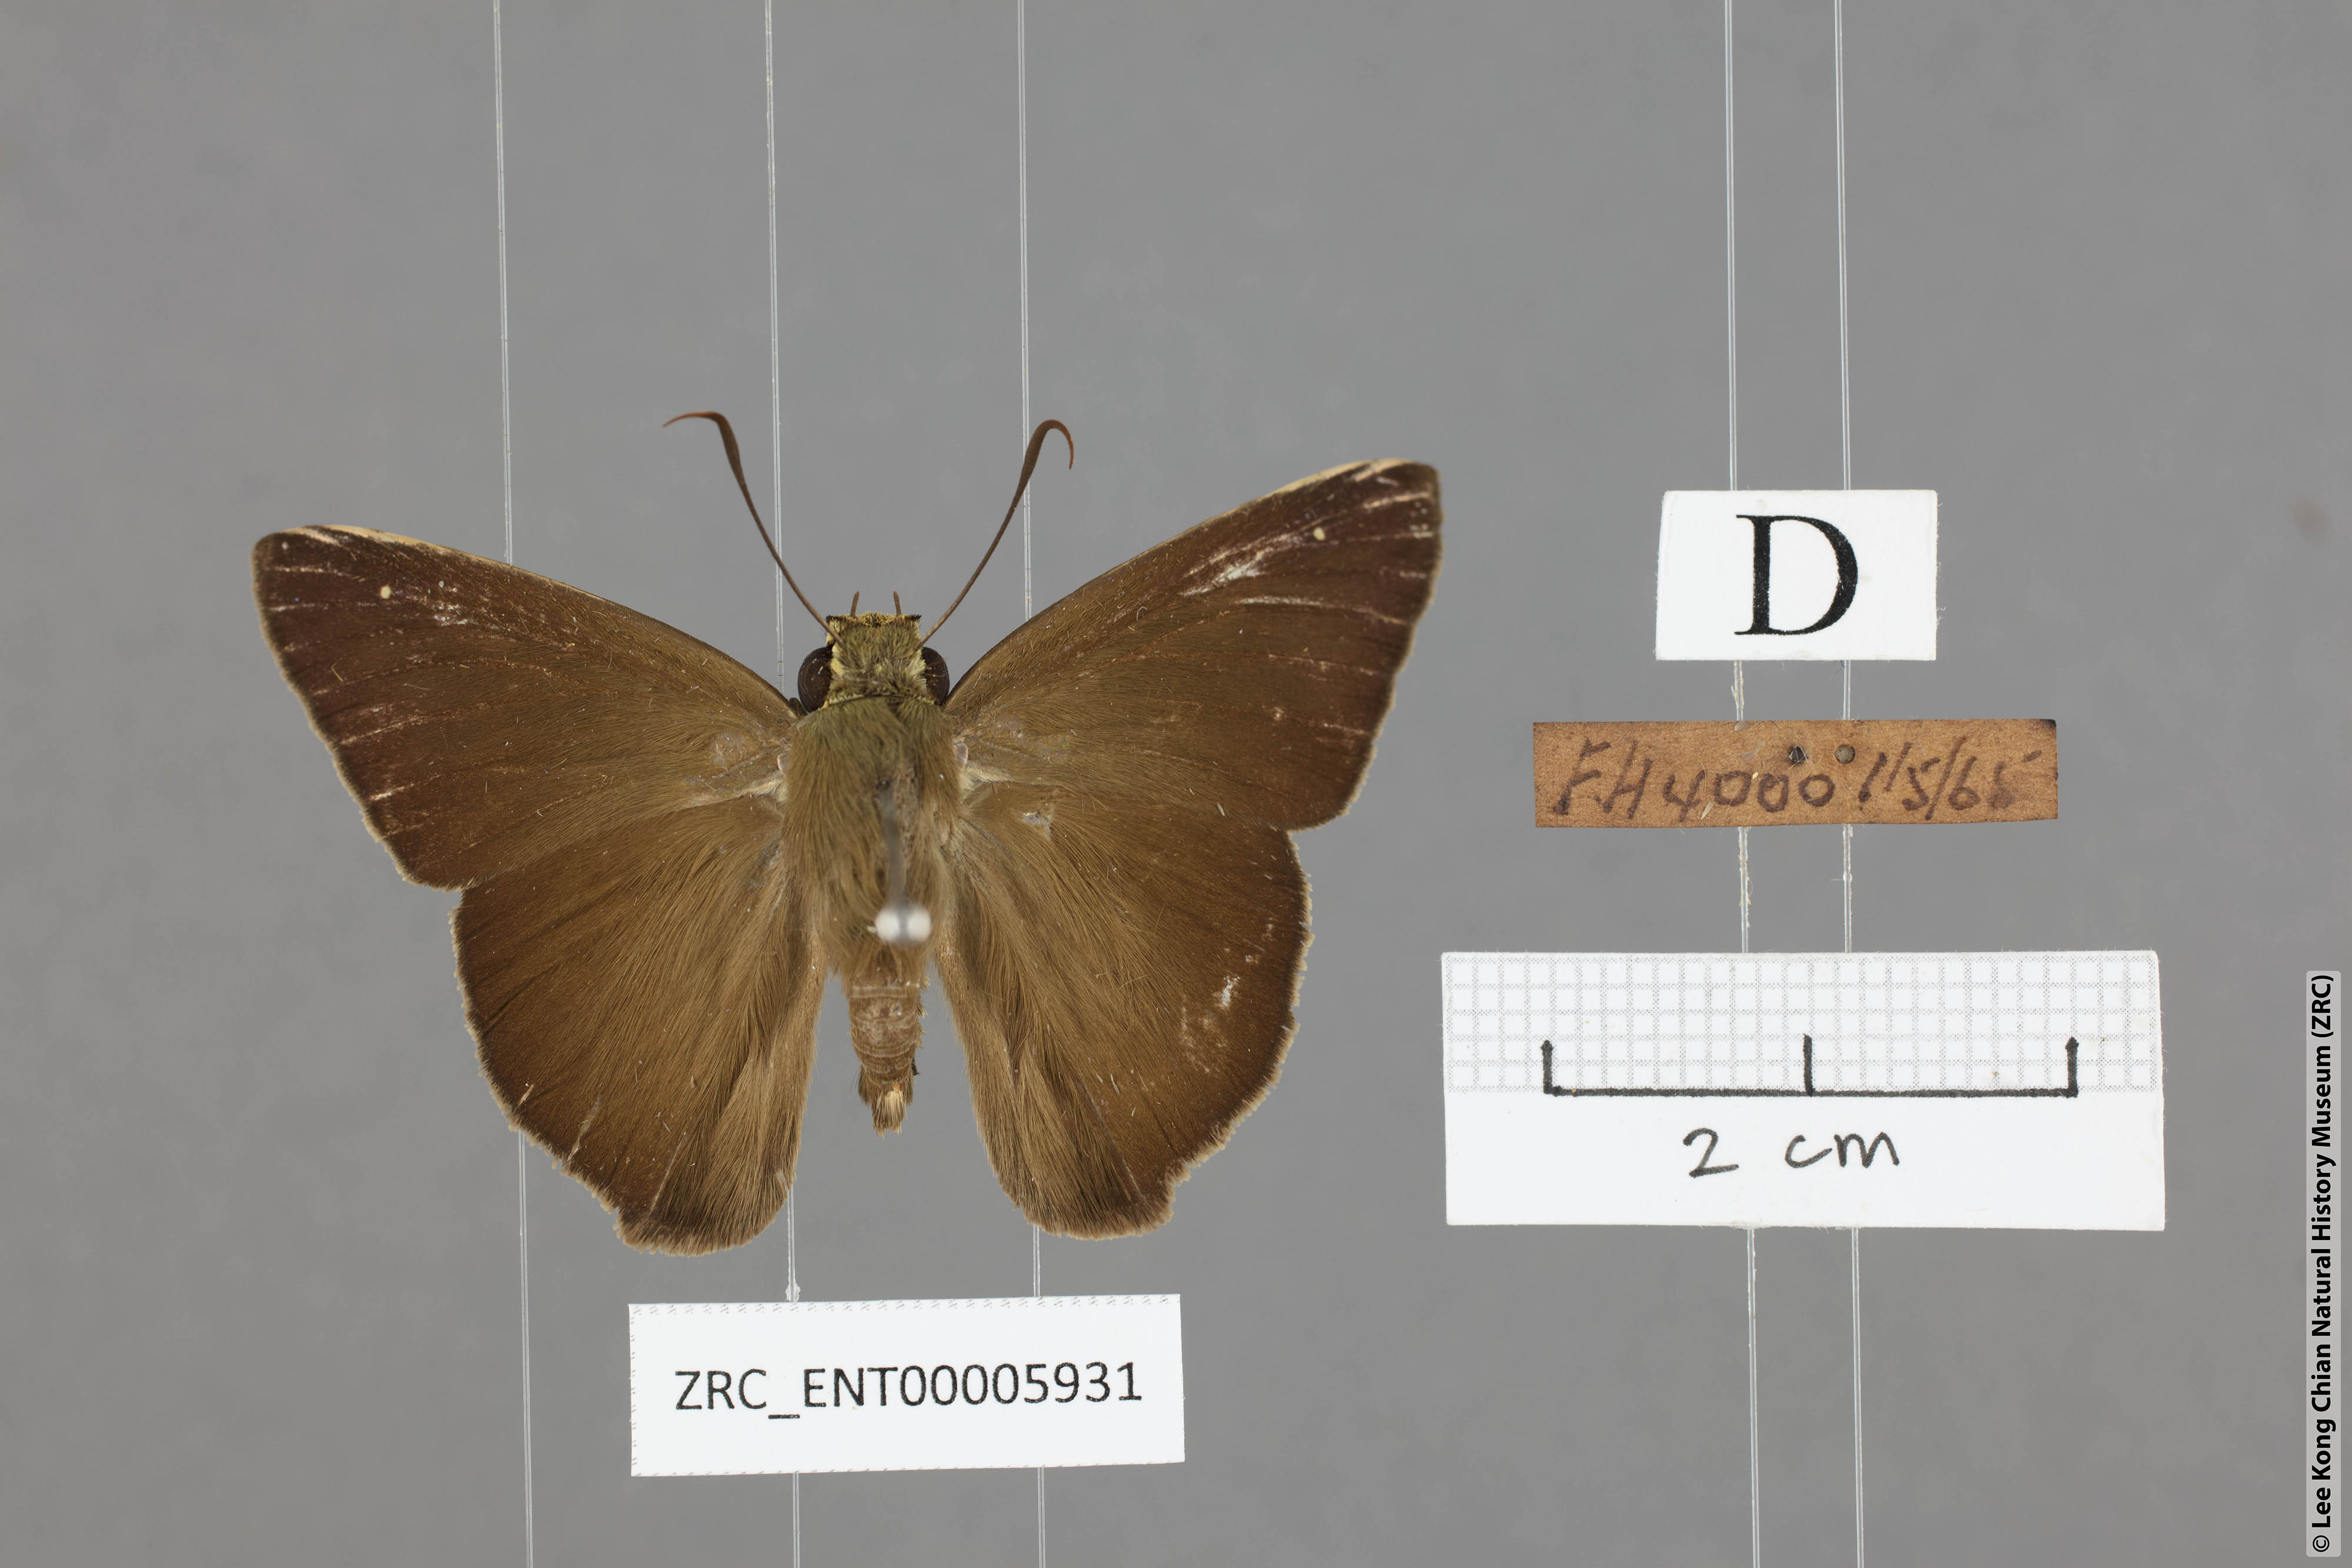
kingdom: Animalia
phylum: Arthropoda
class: Insecta
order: Lepidoptera
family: Hesperiidae
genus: Hasora
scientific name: Hasora vitta
